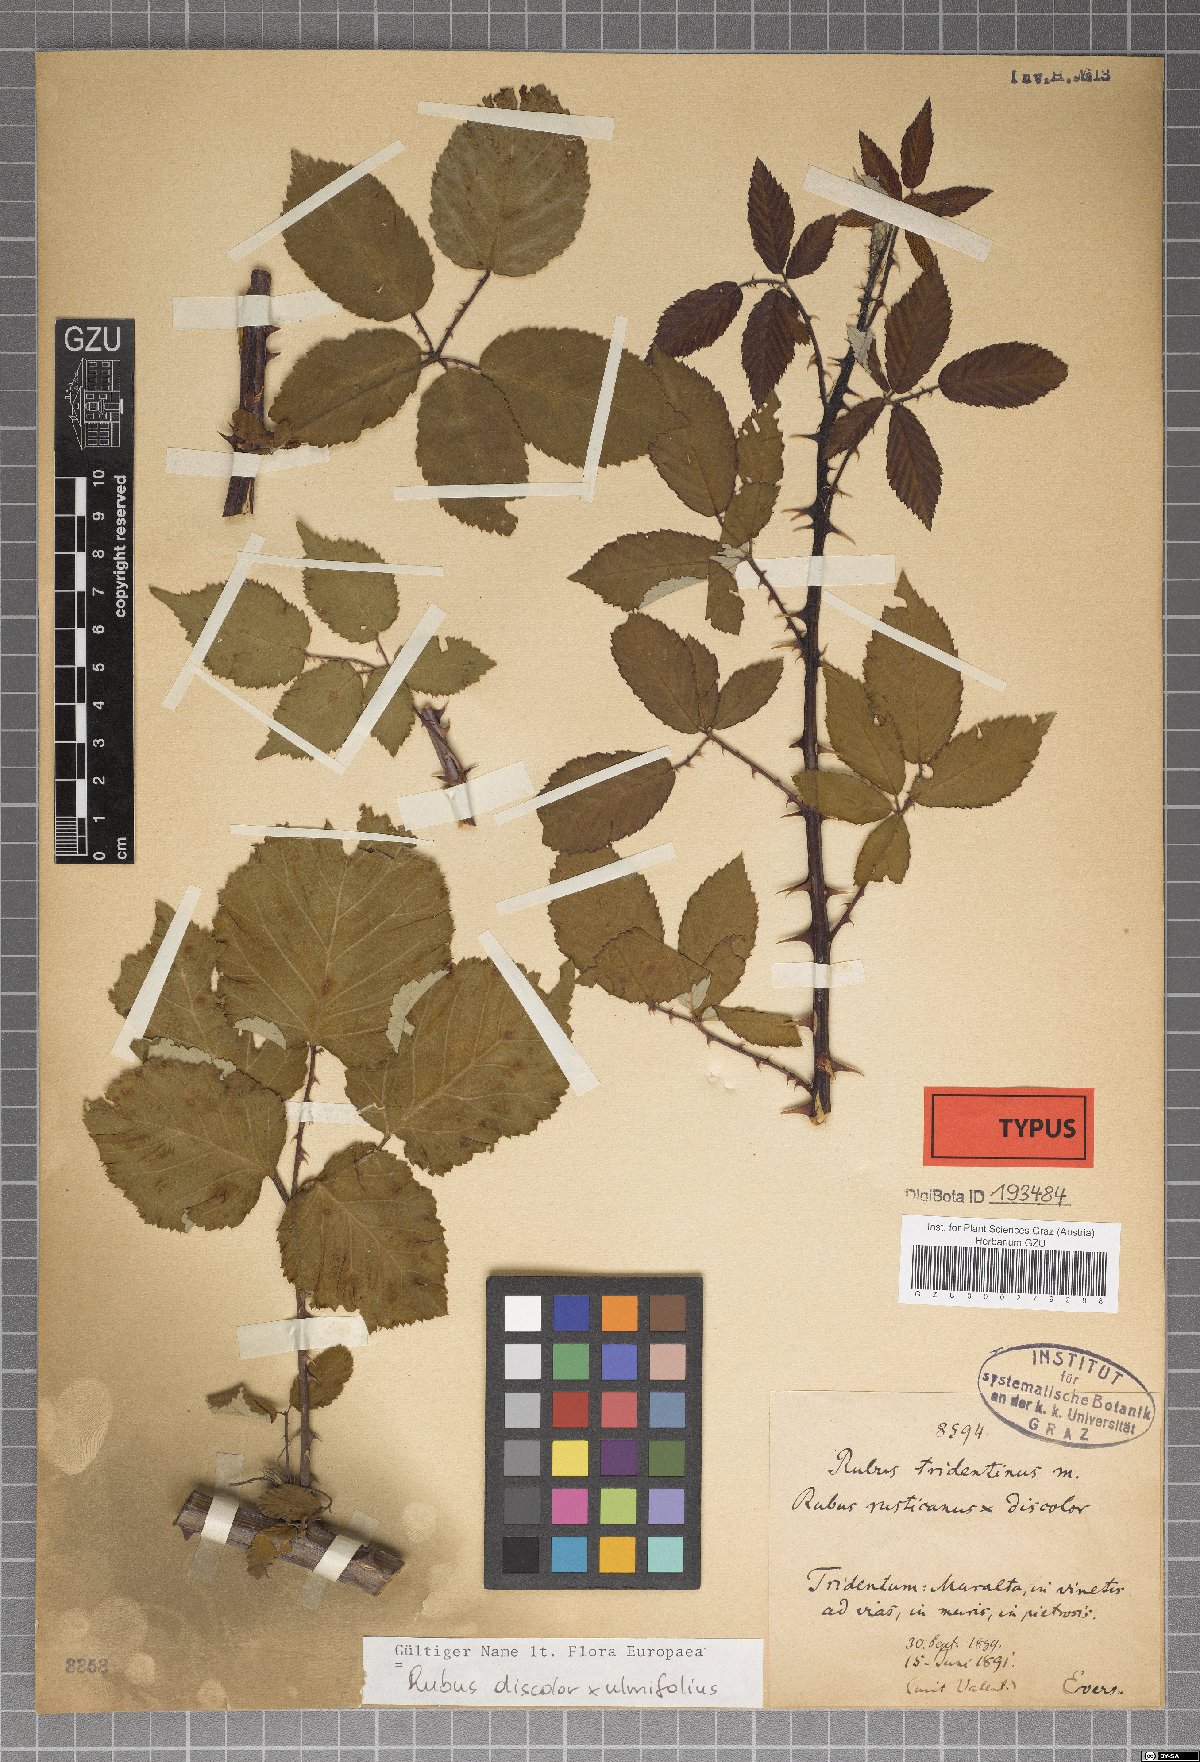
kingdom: Plantae
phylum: Tracheophyta
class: Magnoliopsida
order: Rosales
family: Rosaceae
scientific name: Rosaceae
